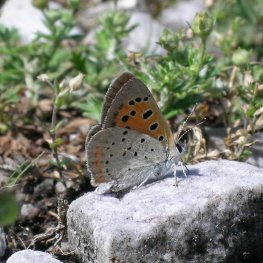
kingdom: Animalia
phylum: Arthropoda
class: Insecta
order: Lepidoptera
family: Lycaenidae
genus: Lycaena
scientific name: Lycaena phlaeas
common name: American Copper
